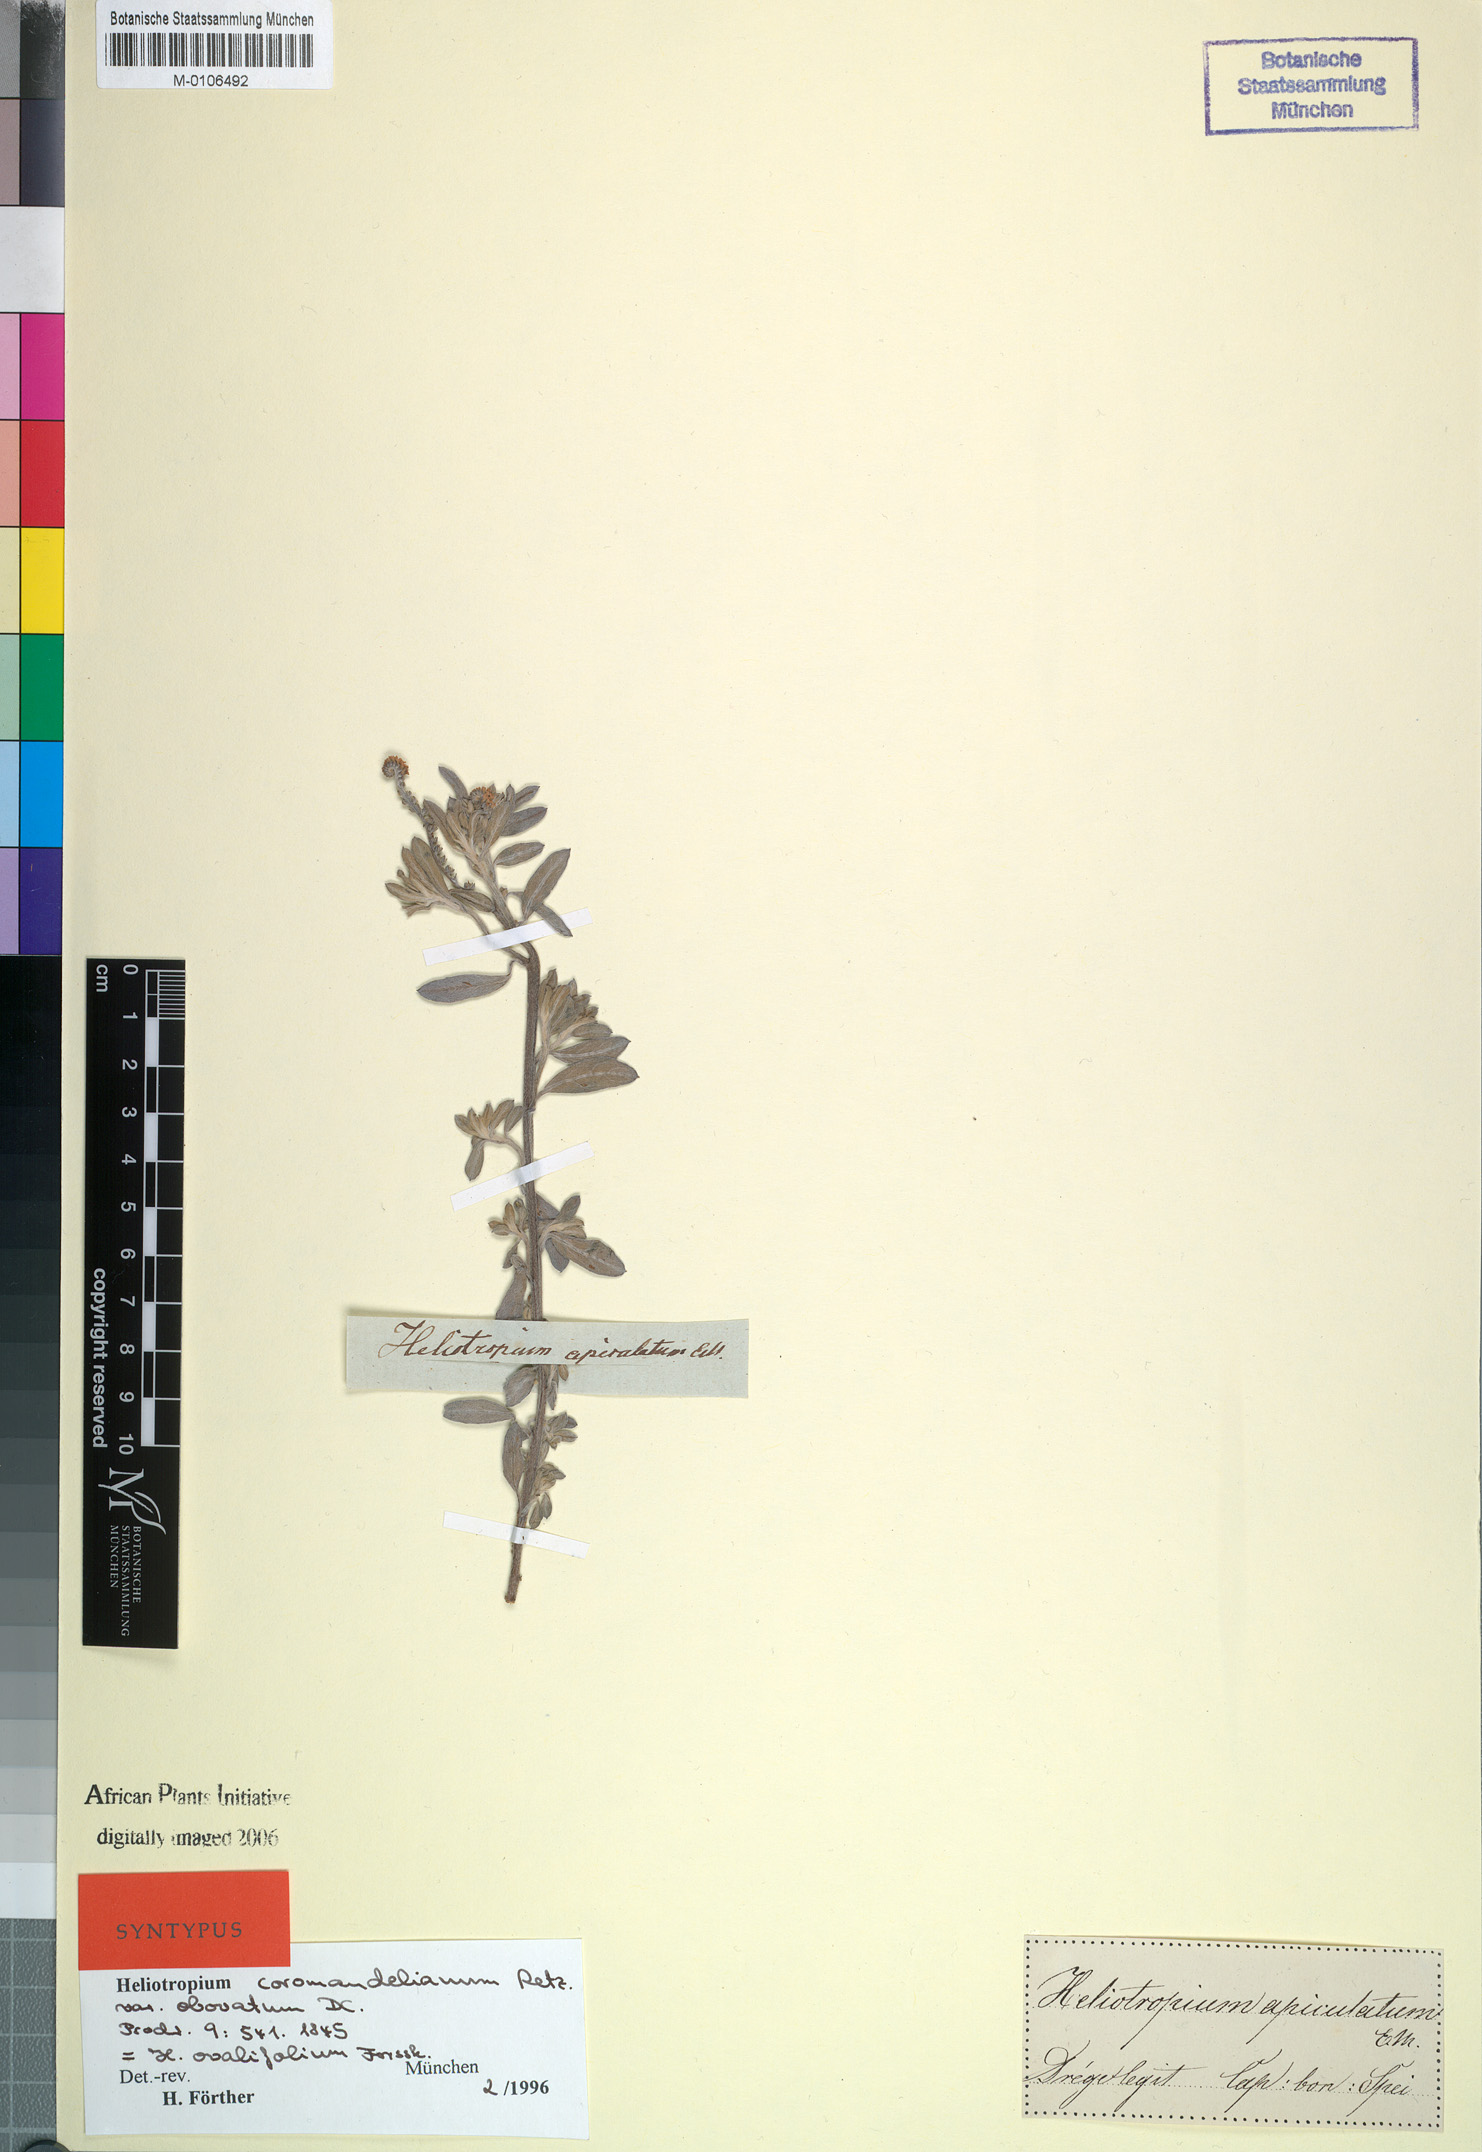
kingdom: Plantae
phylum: Tracheophyta
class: Magnoliopsida
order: Boraginales
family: Heliotropiaceae
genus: Euploca
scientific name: Euploca ovalifolia
